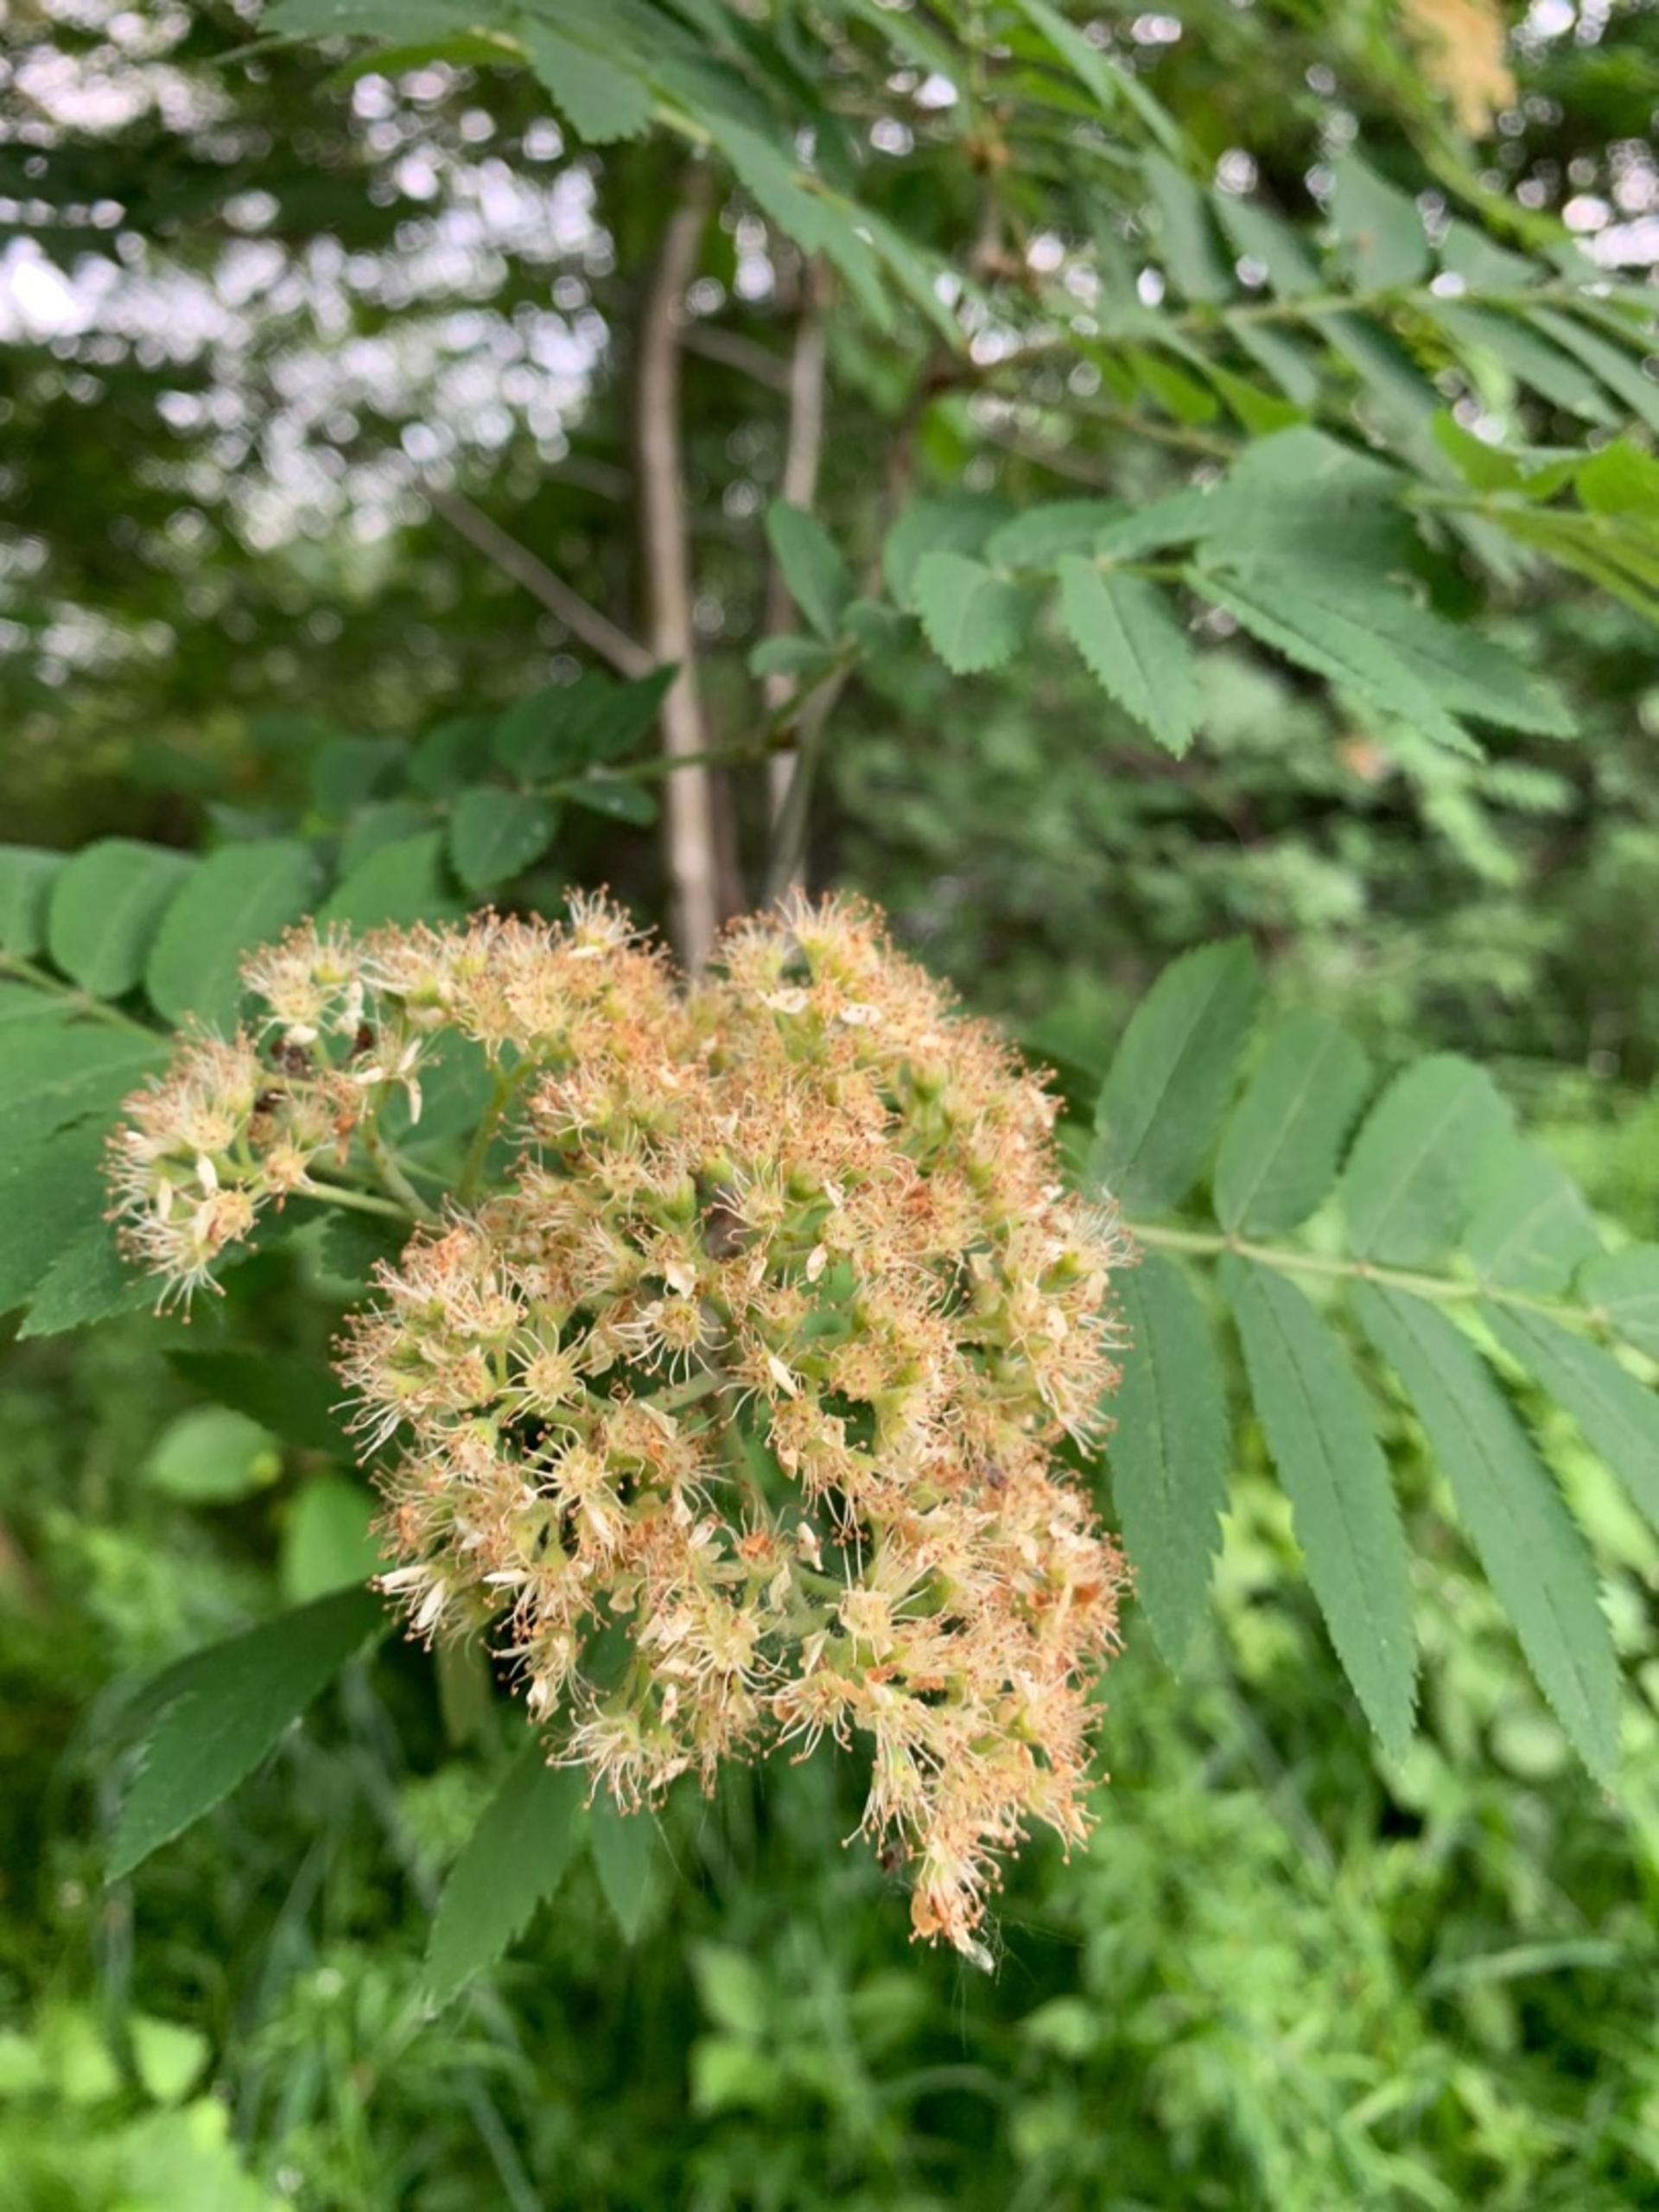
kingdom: Plantae
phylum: Tracheophyta
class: Magnoliopsida
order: Rosales
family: Rosaceae
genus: Sorbus
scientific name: Sorbus aucuparia
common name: Almindelig røn
